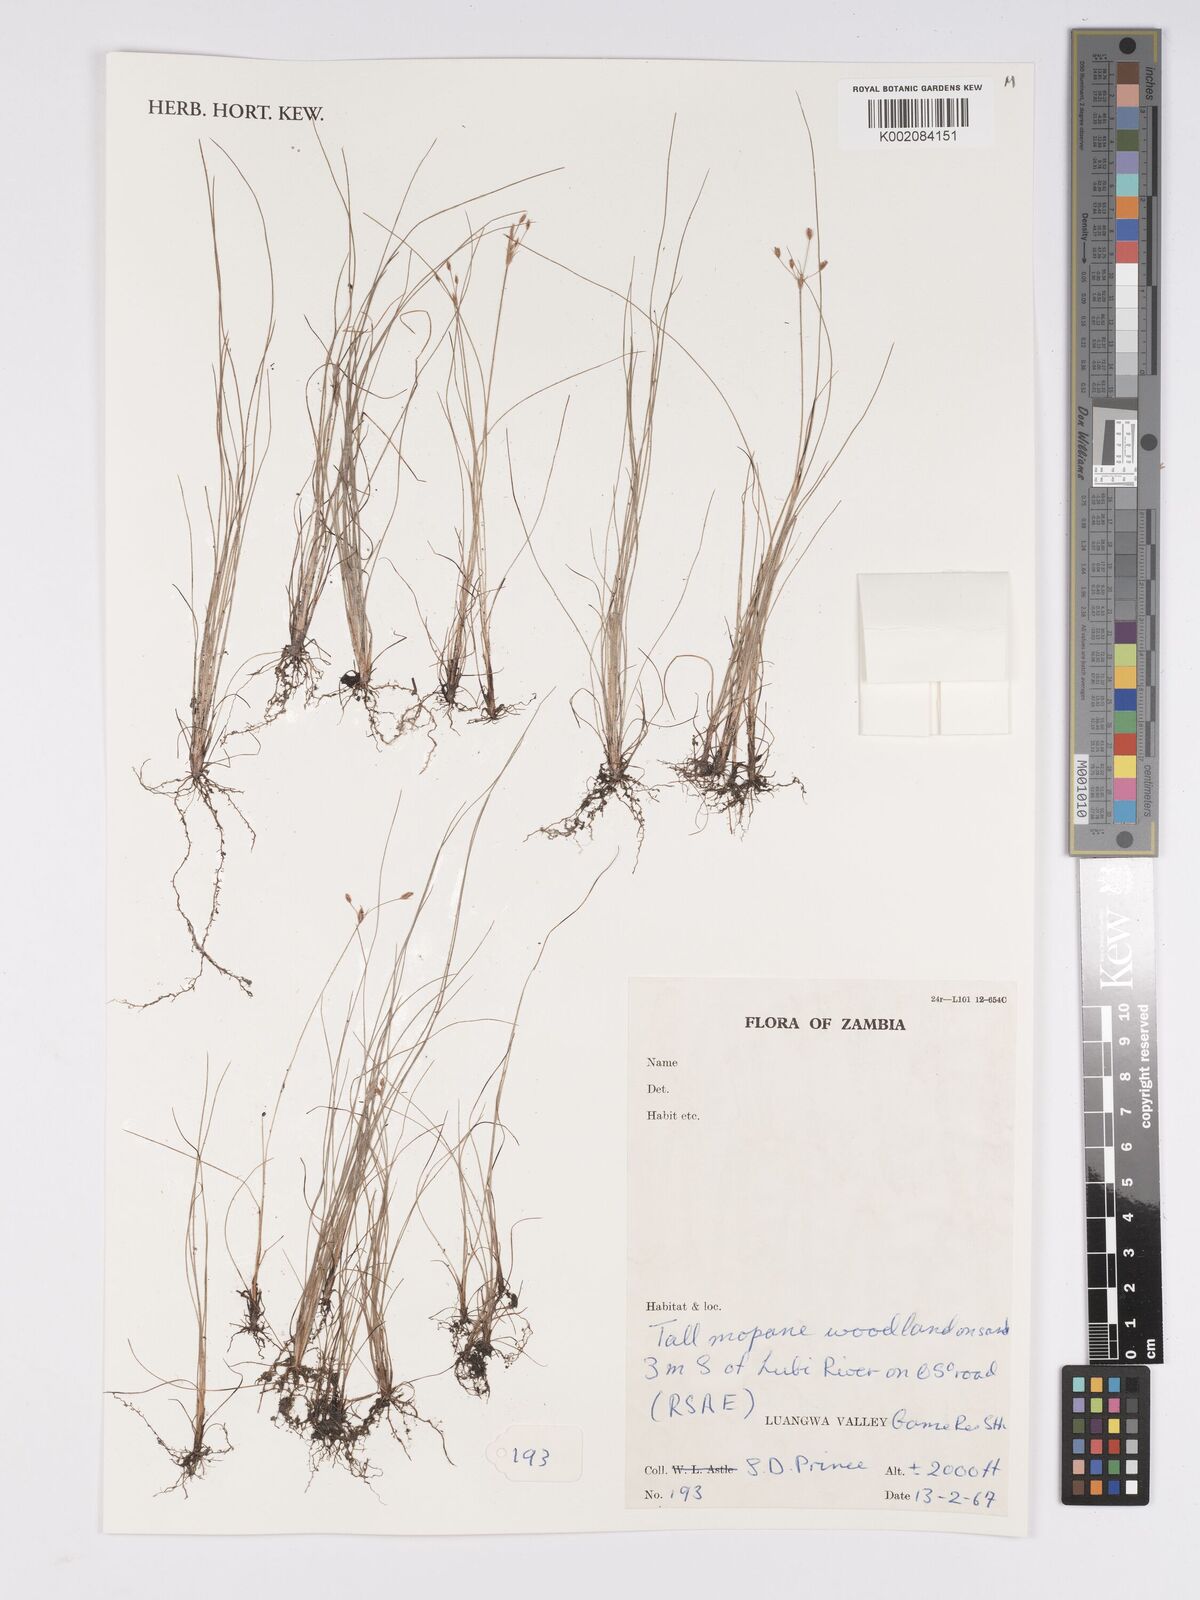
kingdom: Plantae
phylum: Tracheophyta
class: Liliopsida
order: Poales
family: Cyperaceae
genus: Bulbostylis
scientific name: Bulbostylis
